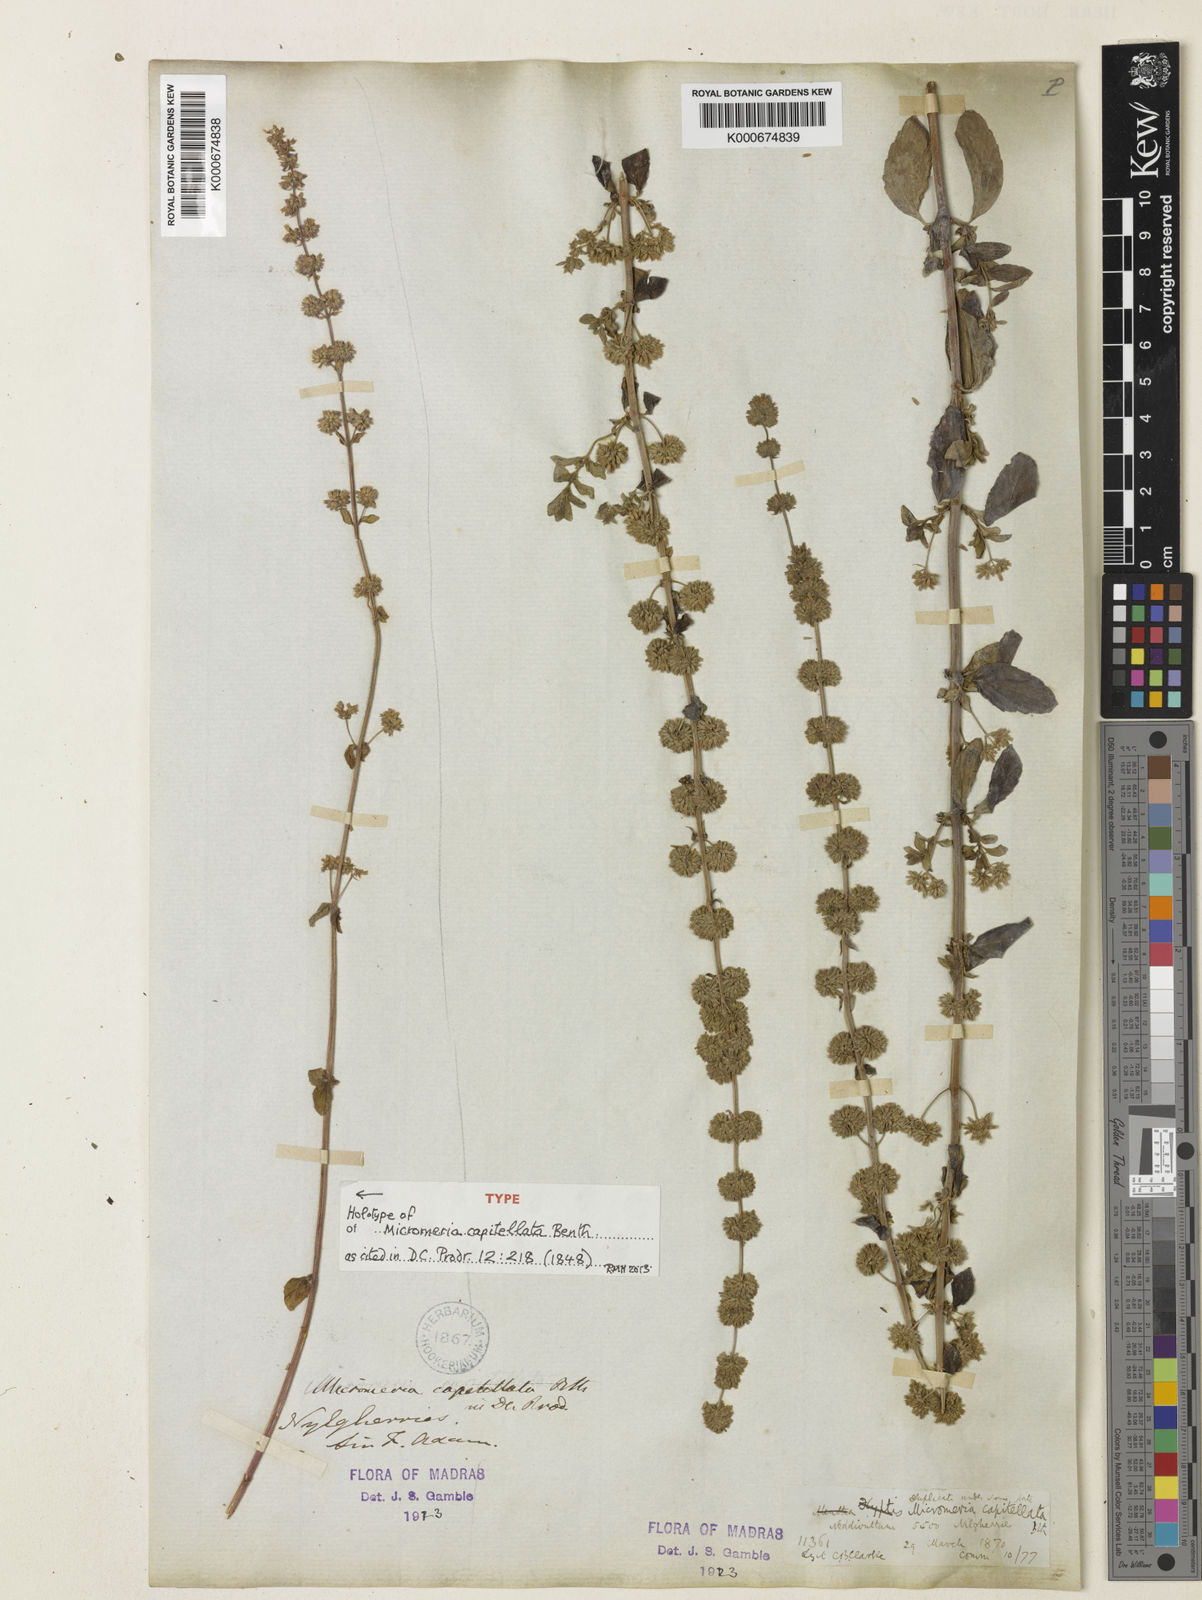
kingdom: Plantae
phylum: Tracheophyta
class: Magnoliopsida
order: Lamiales
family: Lamiaceae
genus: Clinopodium
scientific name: Clinopodium capitellatum
